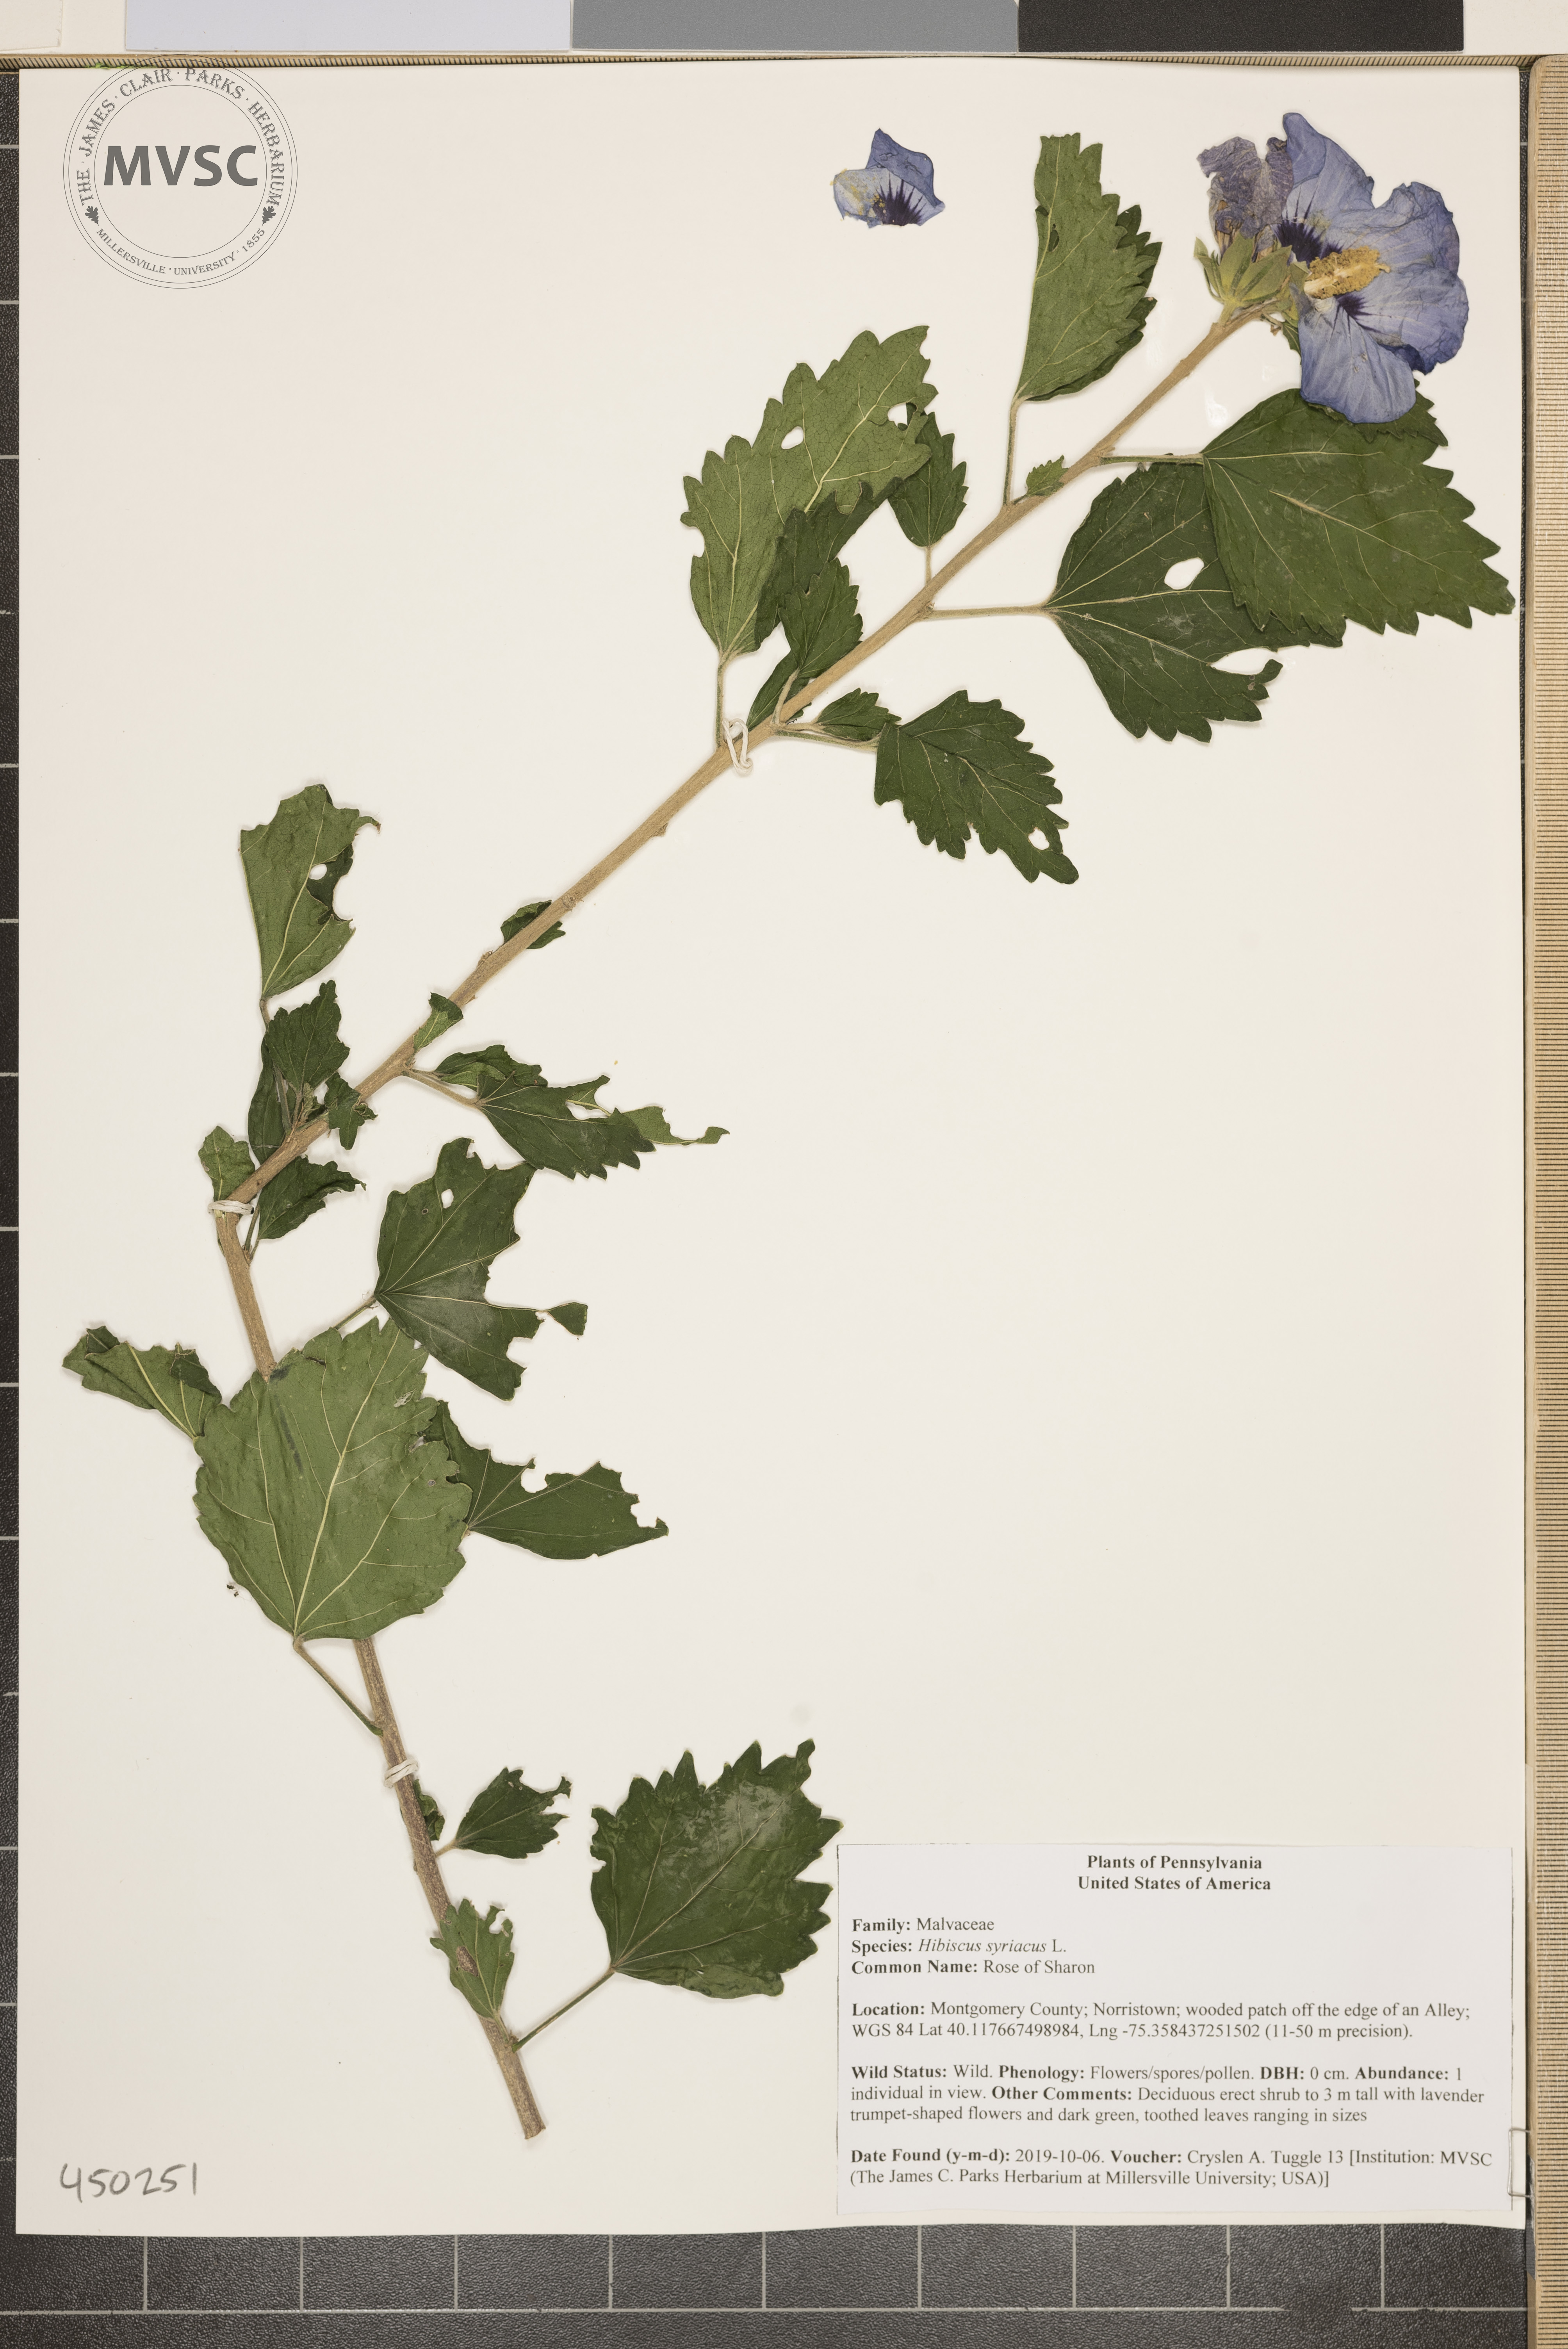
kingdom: Plantae
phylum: Tracheophyta
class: Magnoliopsida
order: Malvales
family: Malvaceae
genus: Hibiscus
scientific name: Hibiscus syriacus
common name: Rose of Sharon
